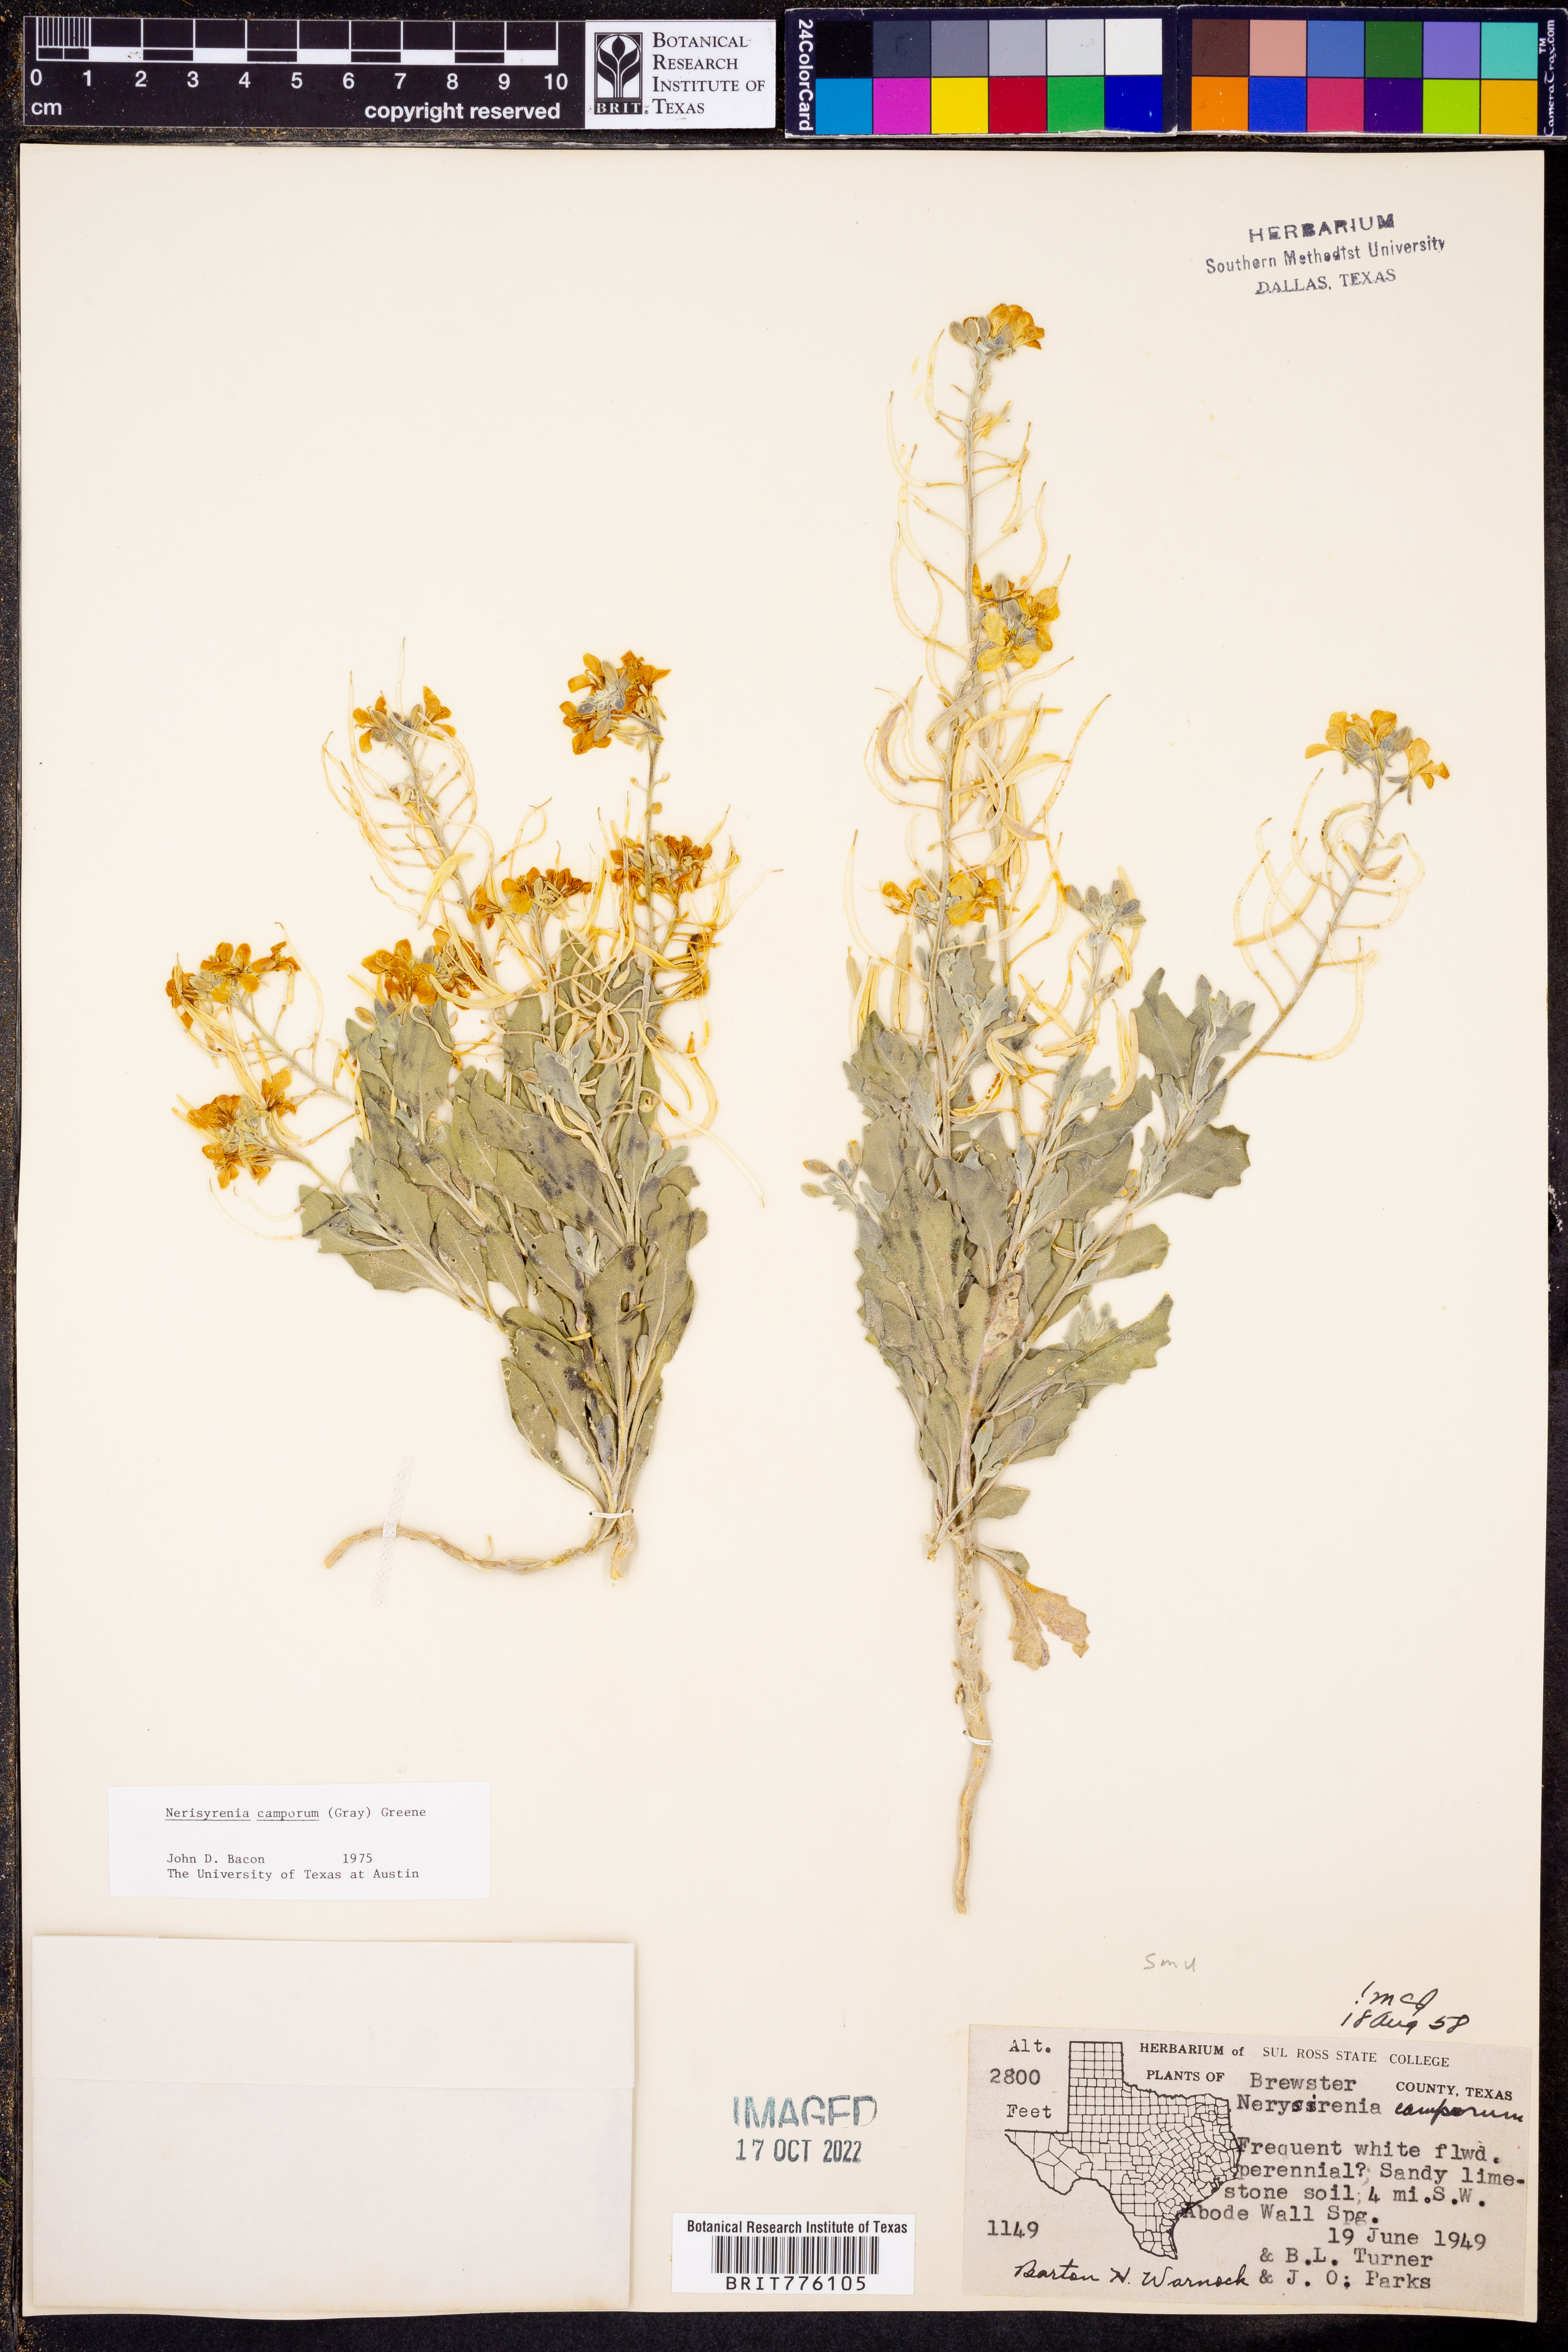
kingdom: Plantae
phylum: Tracheophyta
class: Magnoliopsida
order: Brassicales
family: Brassicaceae
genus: Nerisyrenia
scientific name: Nerisyrenia camporum
